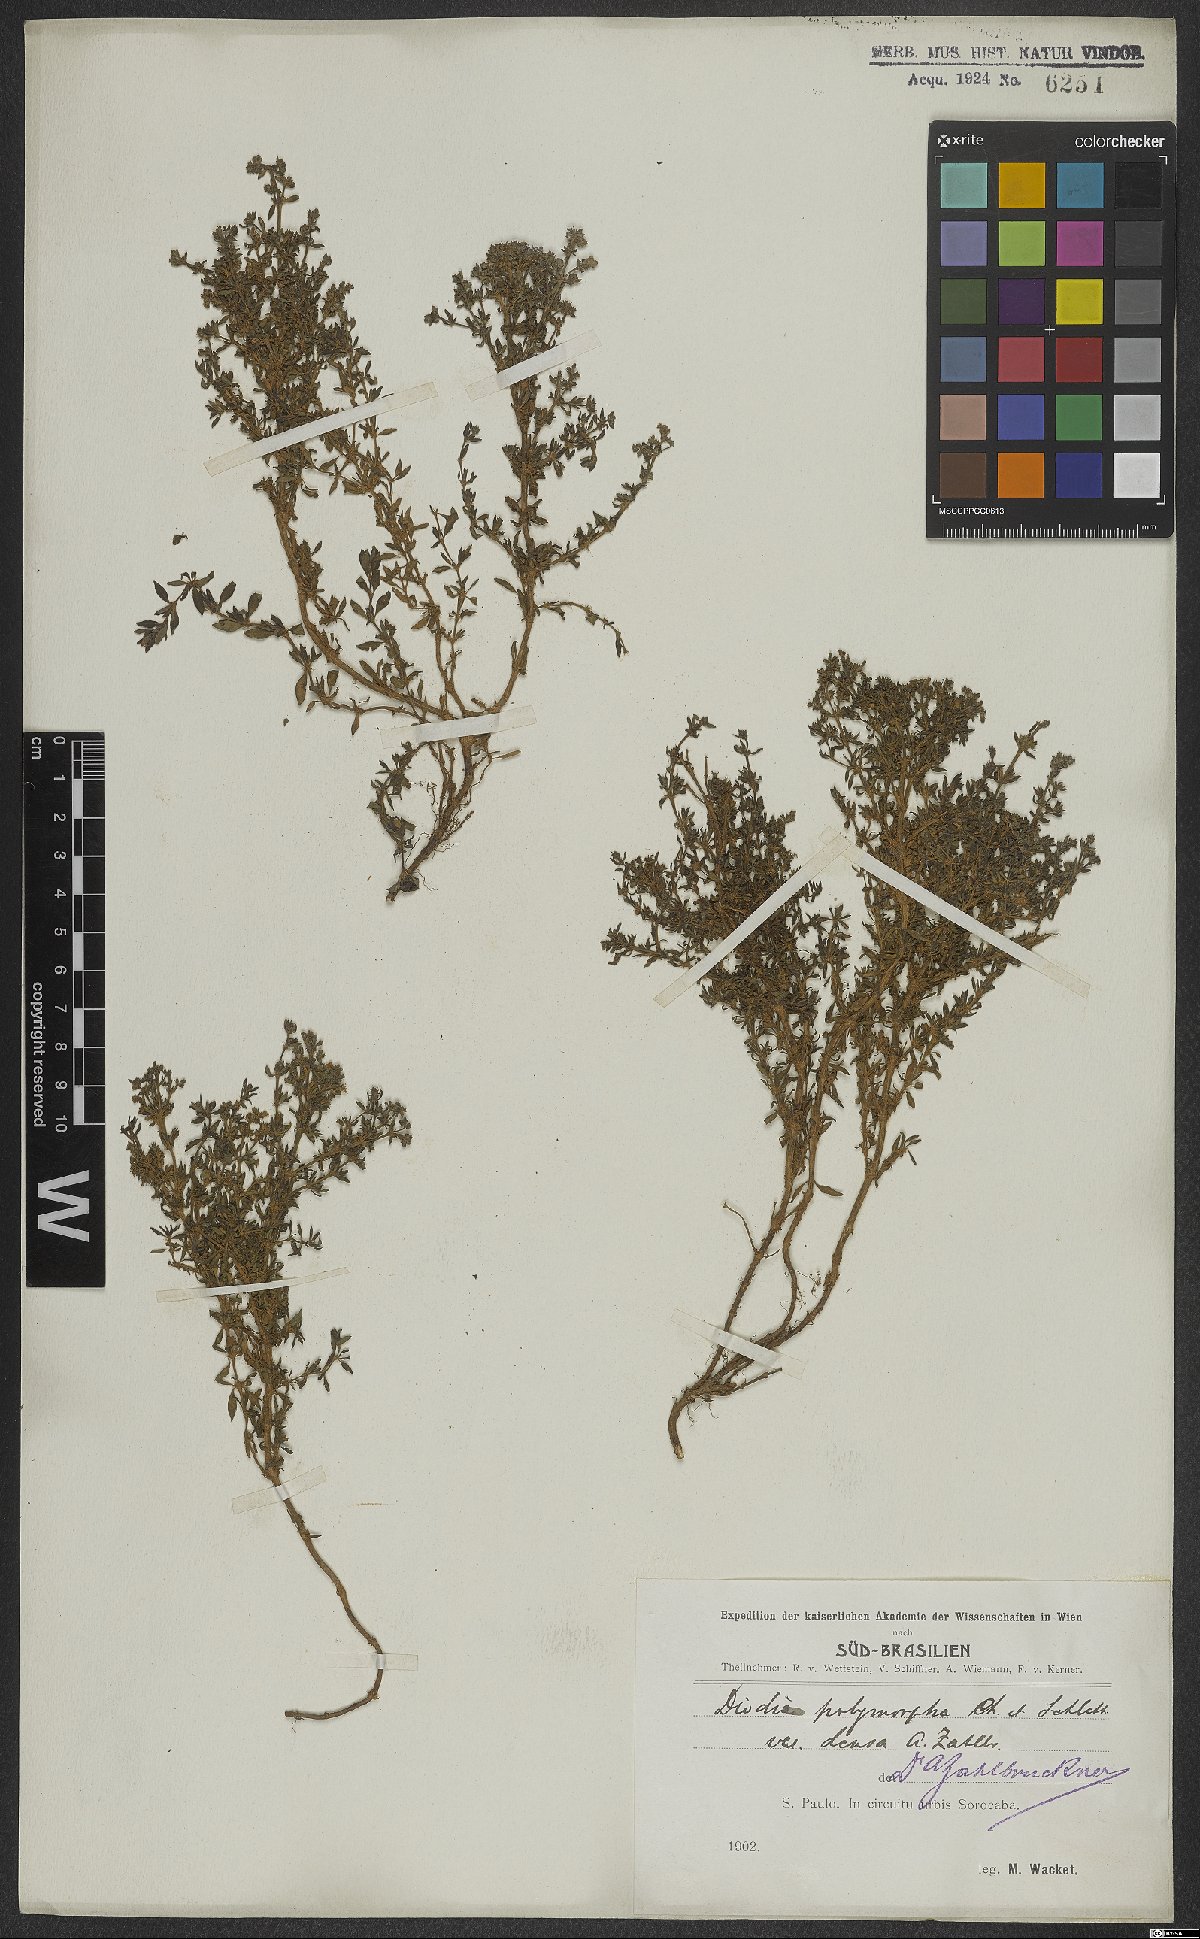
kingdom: Plantae
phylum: Tracheophyta
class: Magnoliopsida
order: Gentianales
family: Rubiaceae
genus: Galianthe
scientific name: Galianthe brasiliensis
